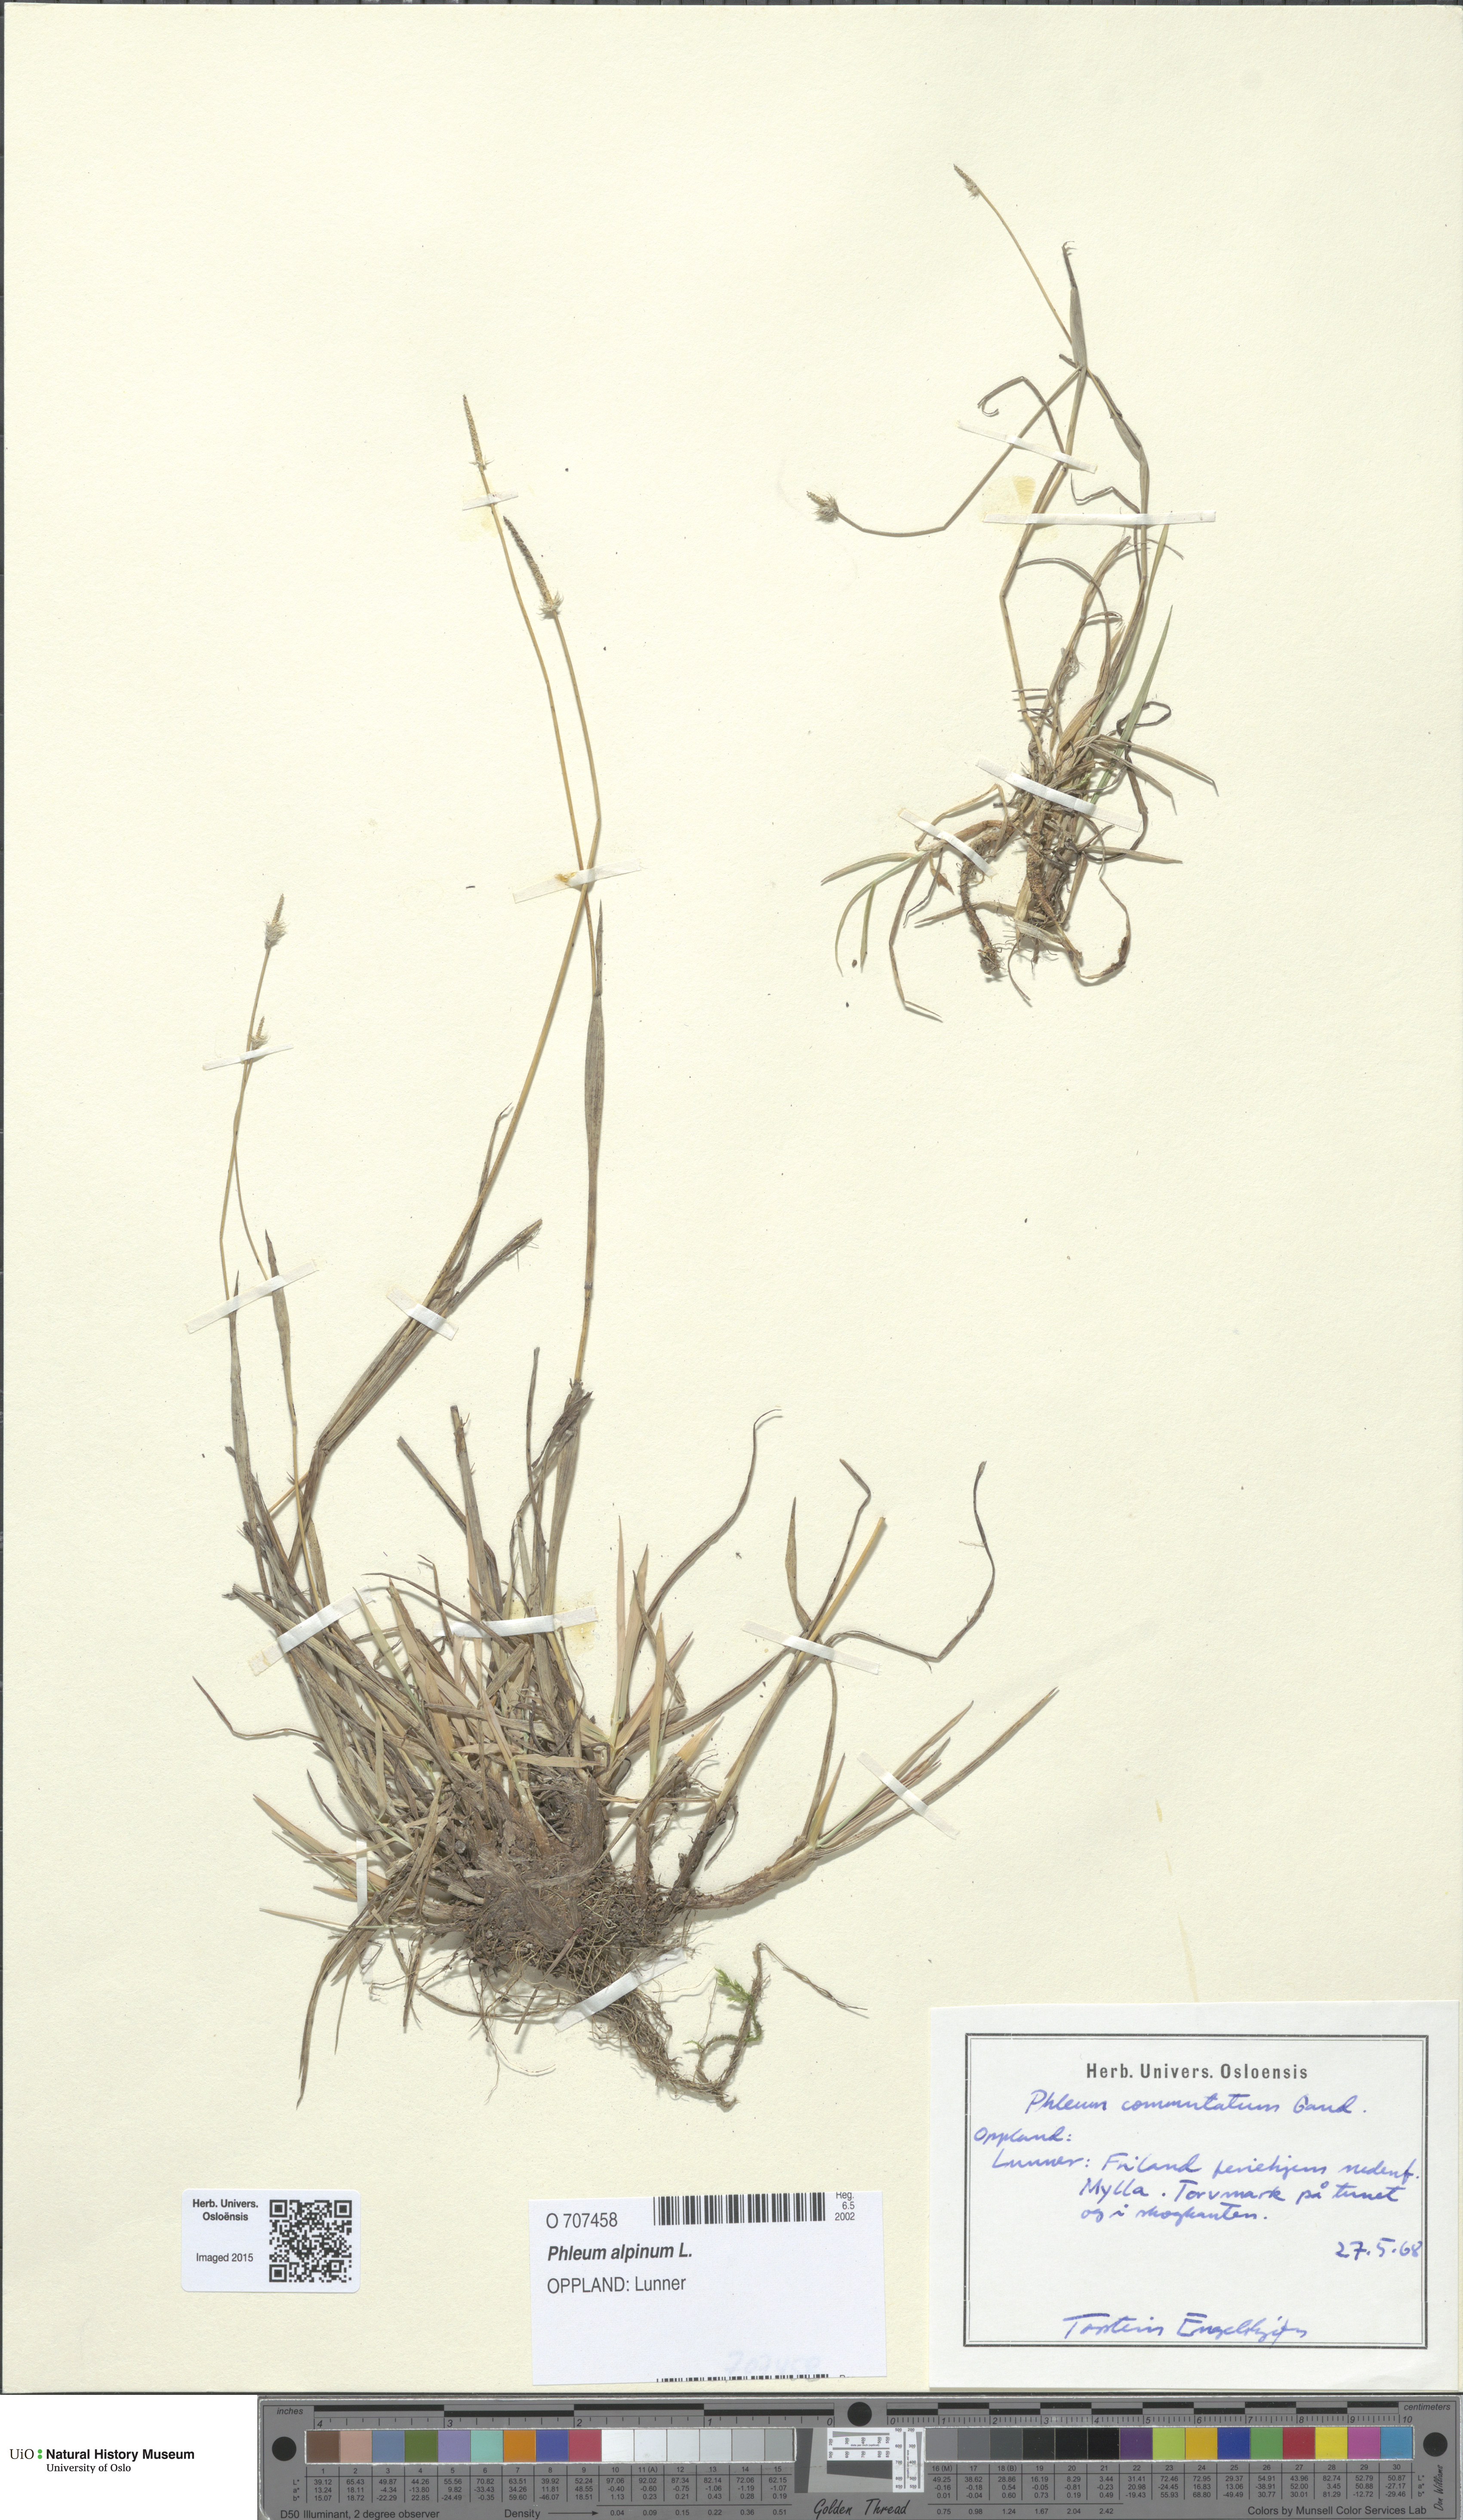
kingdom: Plantae
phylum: Tracheophyta
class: Liliopsida
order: Poales
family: Poaceae
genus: Phleum
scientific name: Phleum alpinum
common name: Alpine cat's-tail
